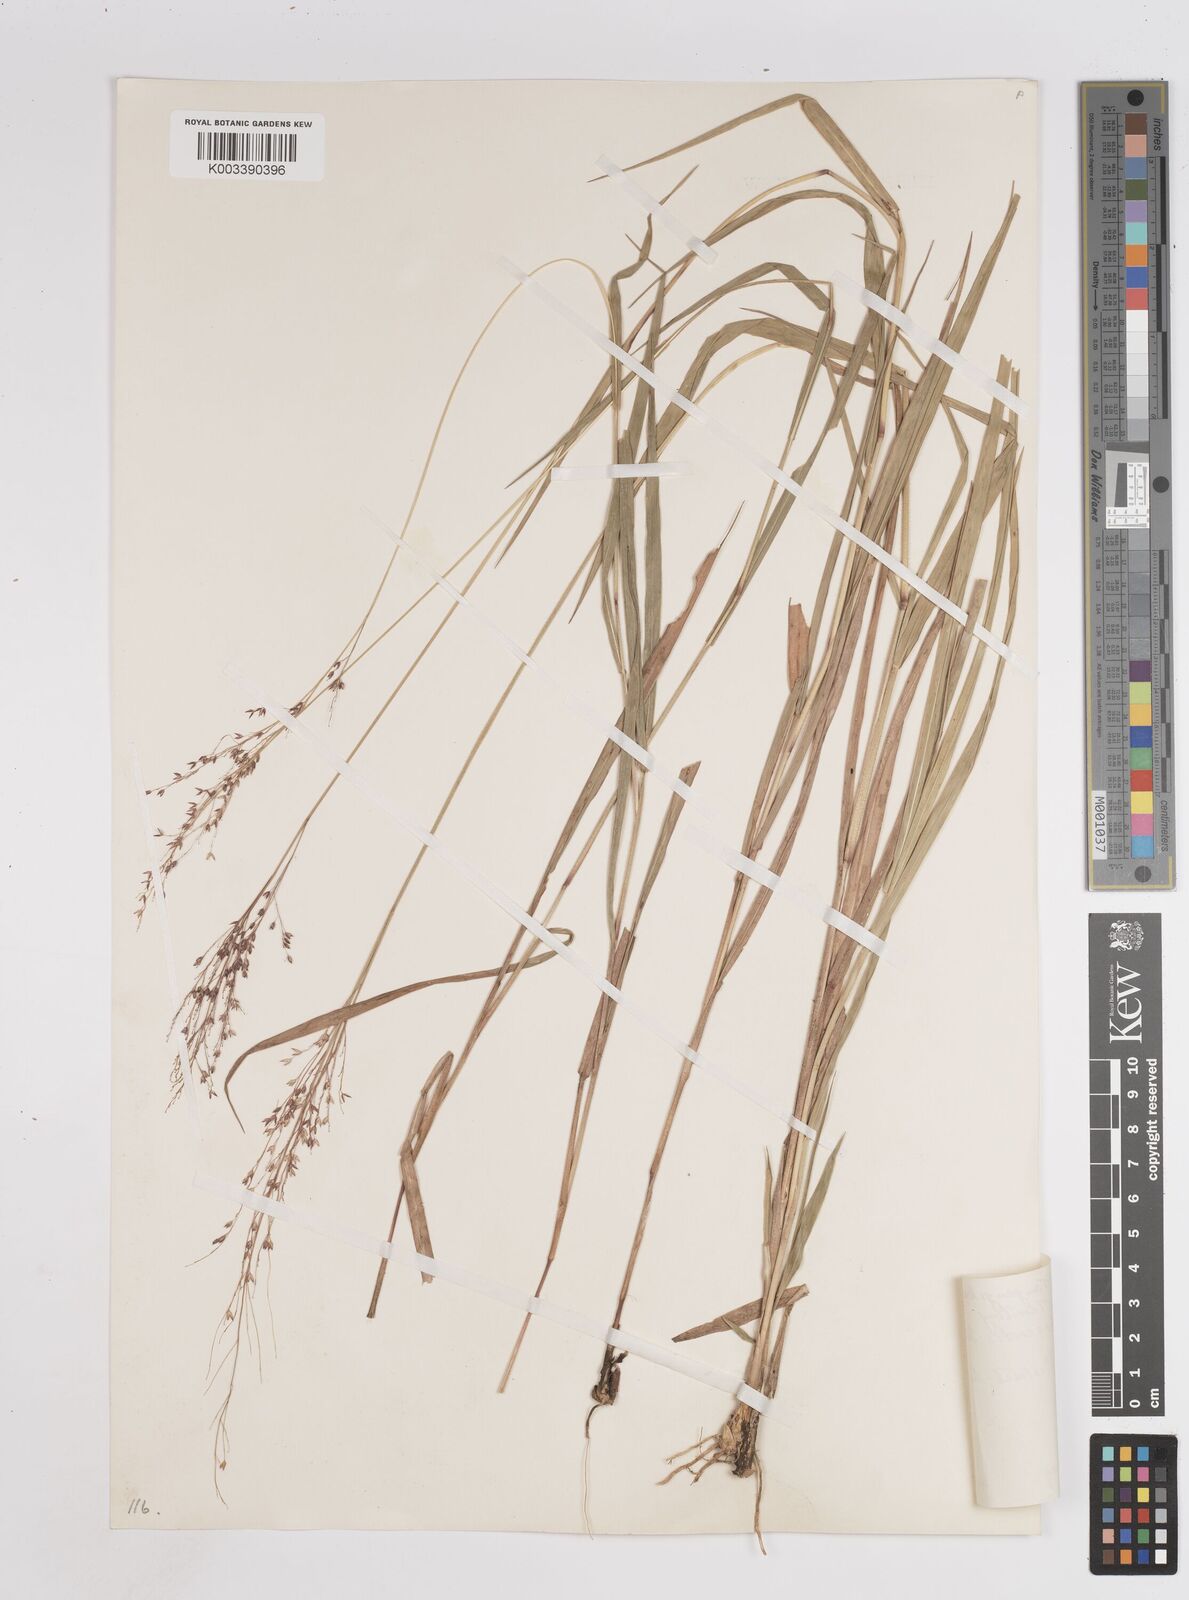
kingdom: Plantae
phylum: Tracheophyta
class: Liliopsida
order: Poales
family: Poaceae
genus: Panicum
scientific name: Panicum
